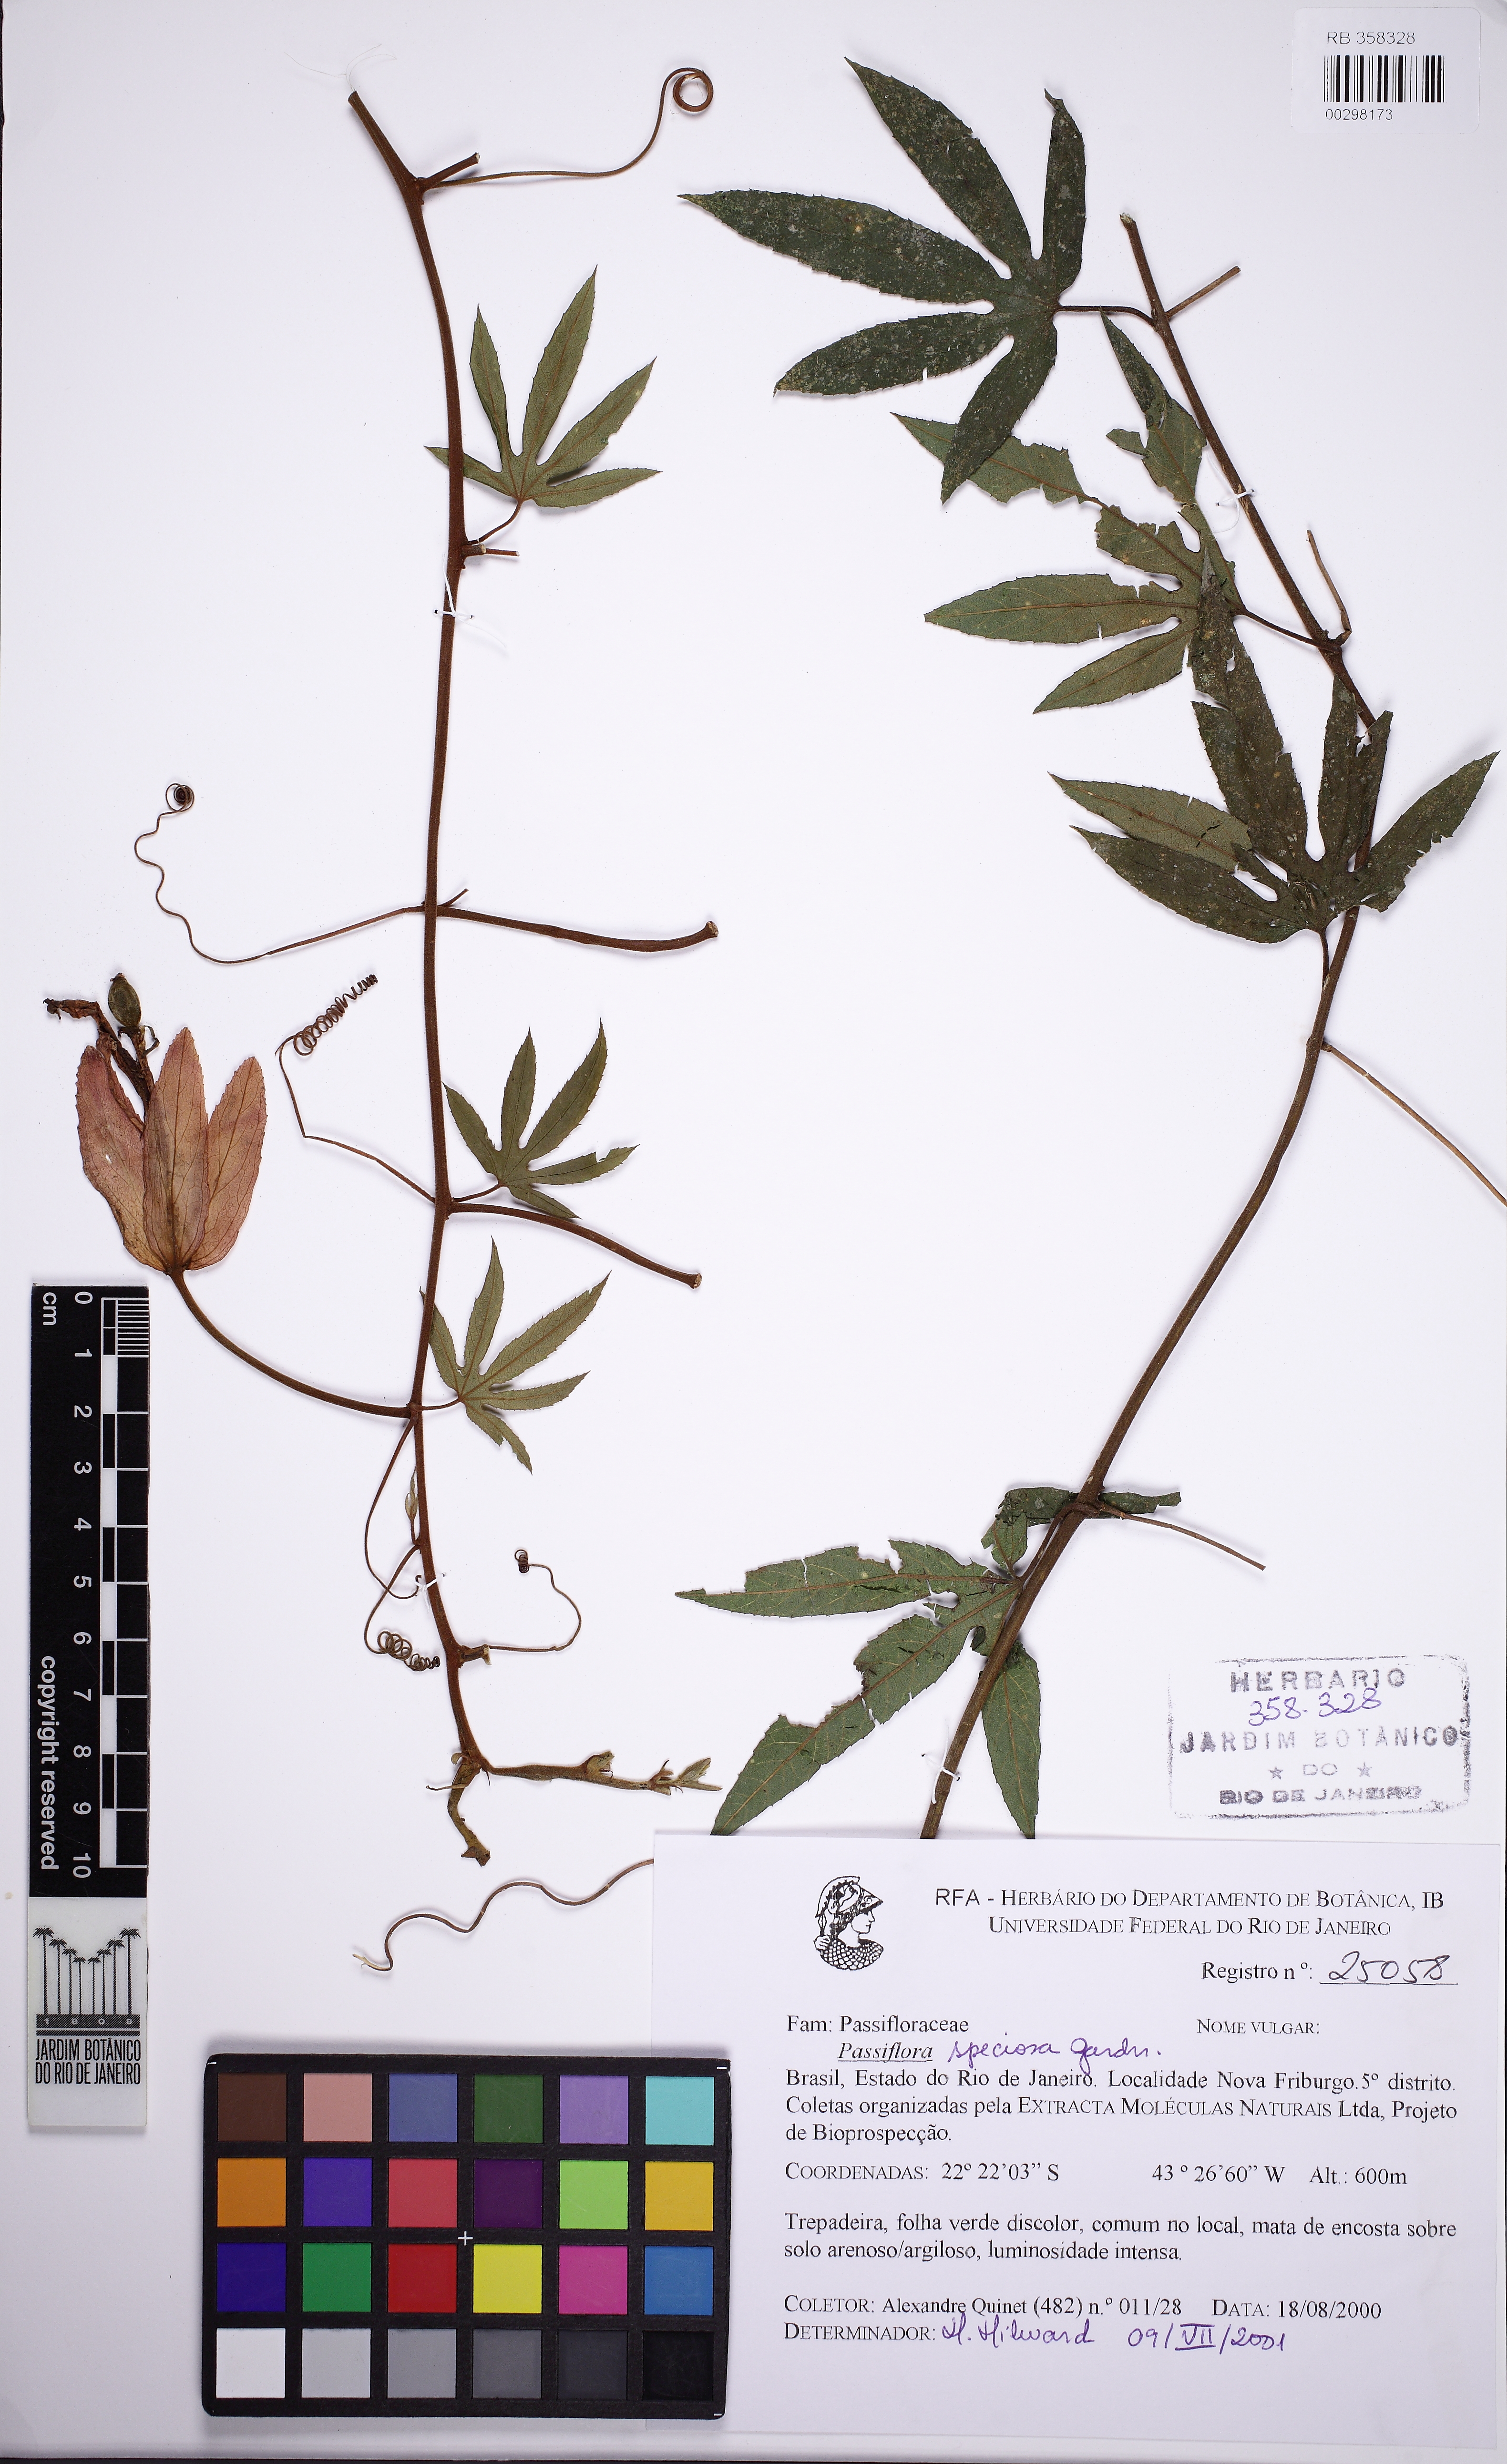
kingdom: Plantae
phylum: Tracheophyta
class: Magnoliopsida
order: Malpighiales
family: Passifloraceae
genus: Passiflora
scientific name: Passiflora speciosa
